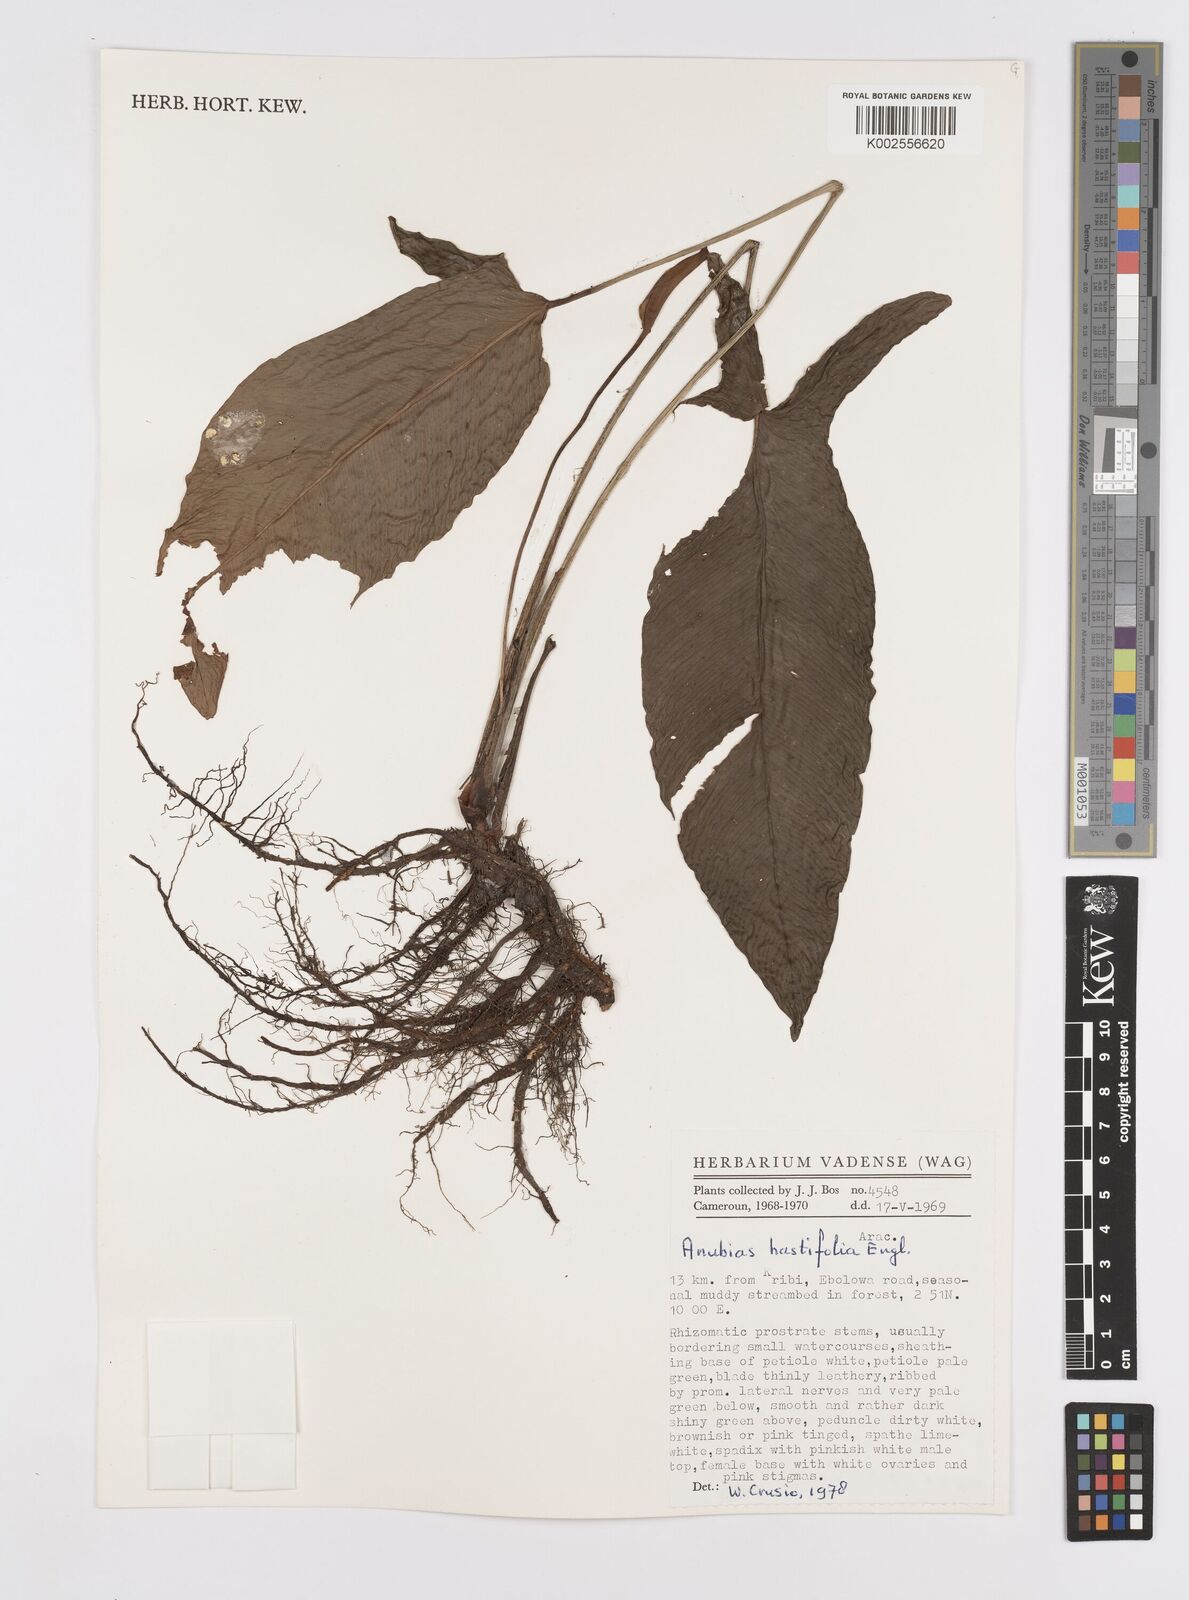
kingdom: Plantae
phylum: Tracheophyta
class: Liliopsida
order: Alismatales
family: Araceae
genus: Anubias
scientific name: Anubias gilletii
